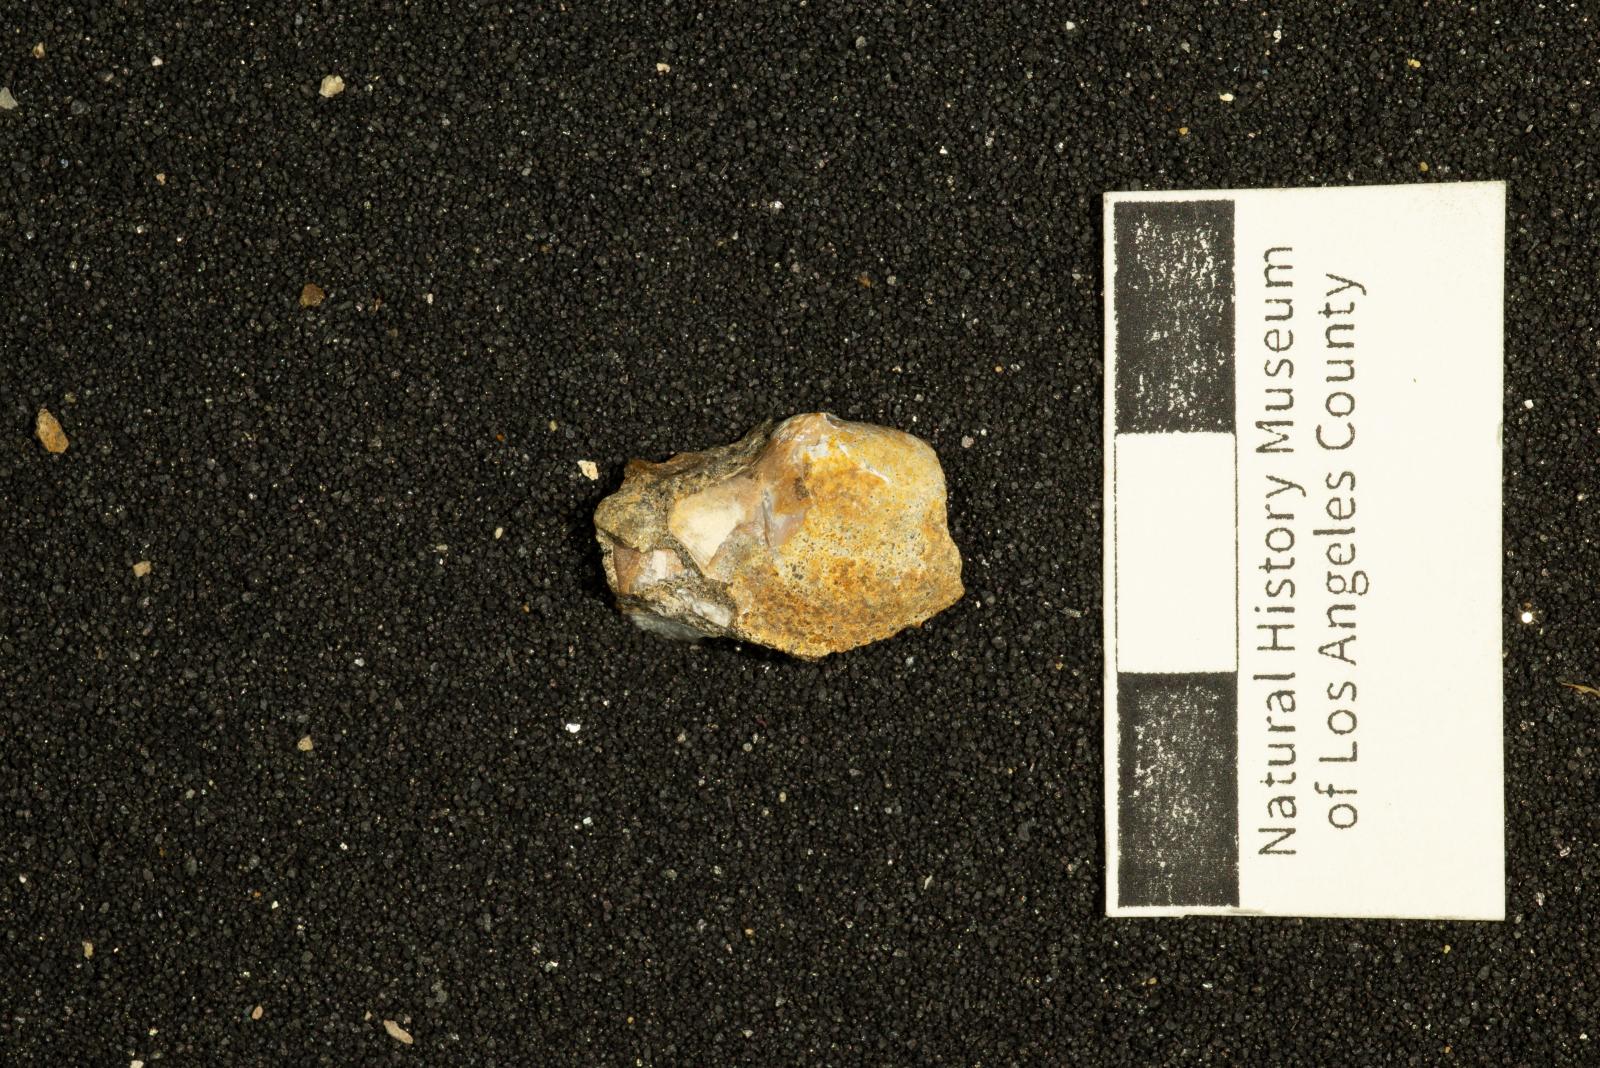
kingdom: Animalia
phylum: Mollusca
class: Bivalvia
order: Cardiida
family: Tancrediidae
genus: Meekia
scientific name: Meekia louella
